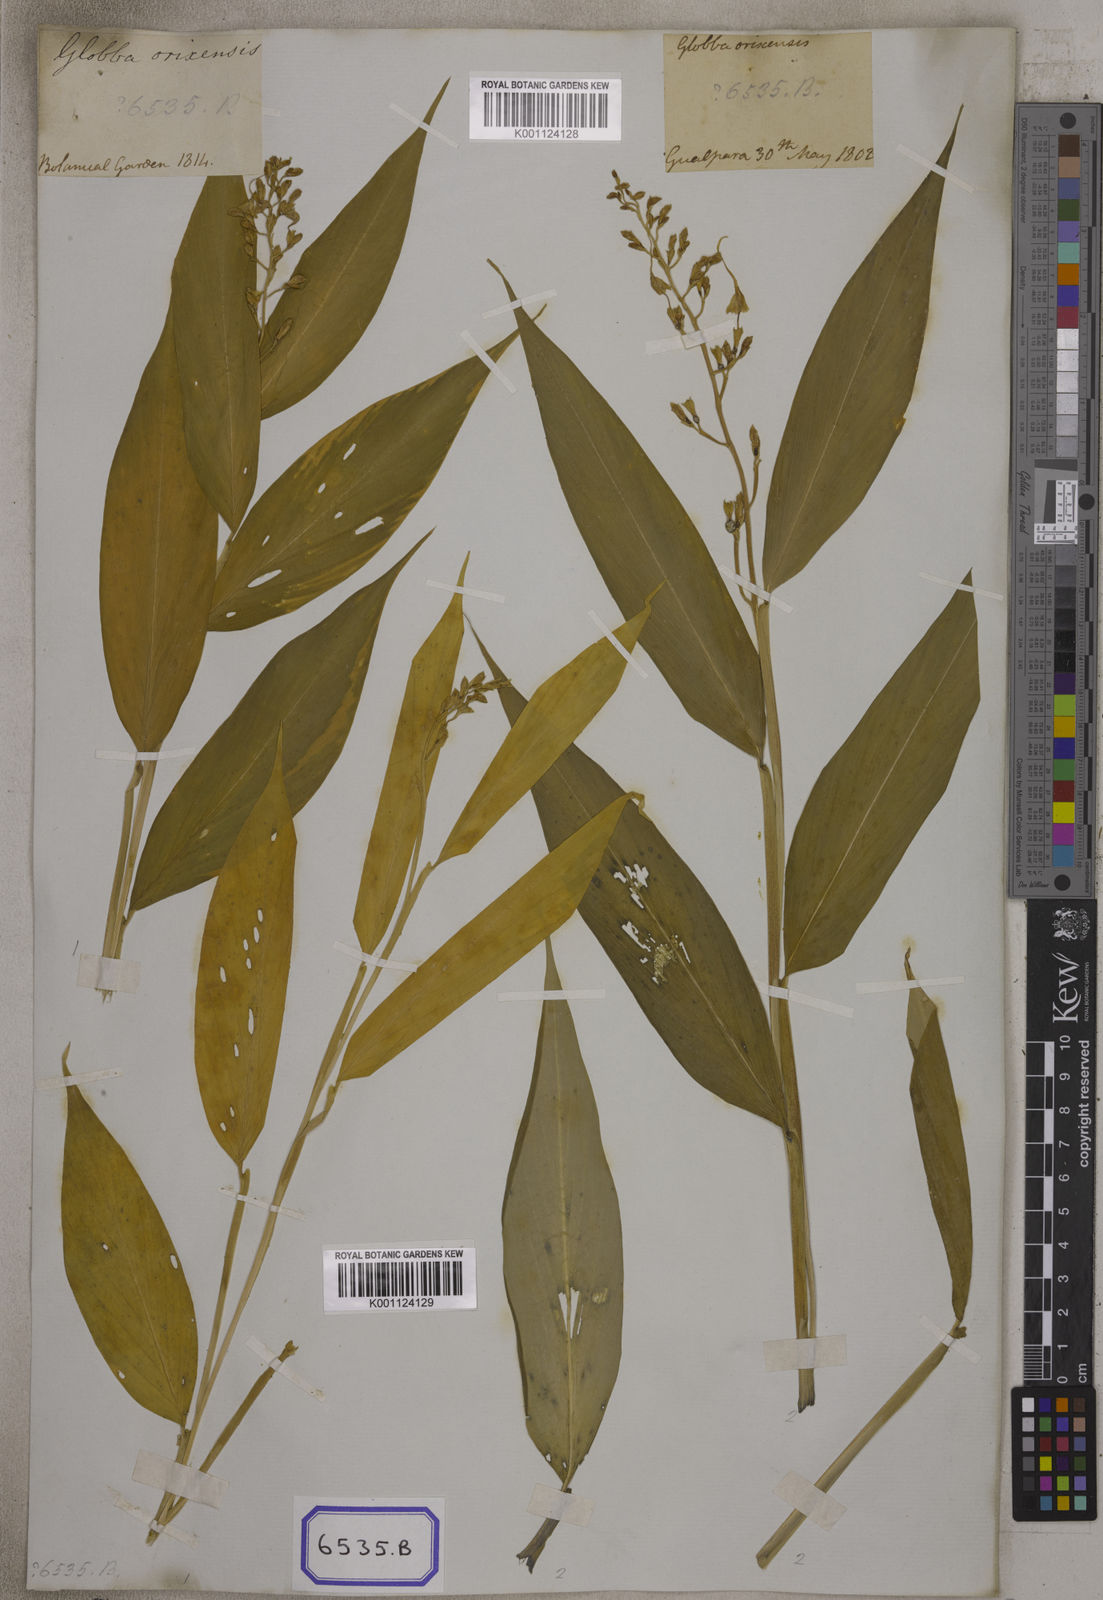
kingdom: Plantae
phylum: Tracheophyta
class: Liliopsida
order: Zingiberales
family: Zingiberaceae
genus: Globba
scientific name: Globba
